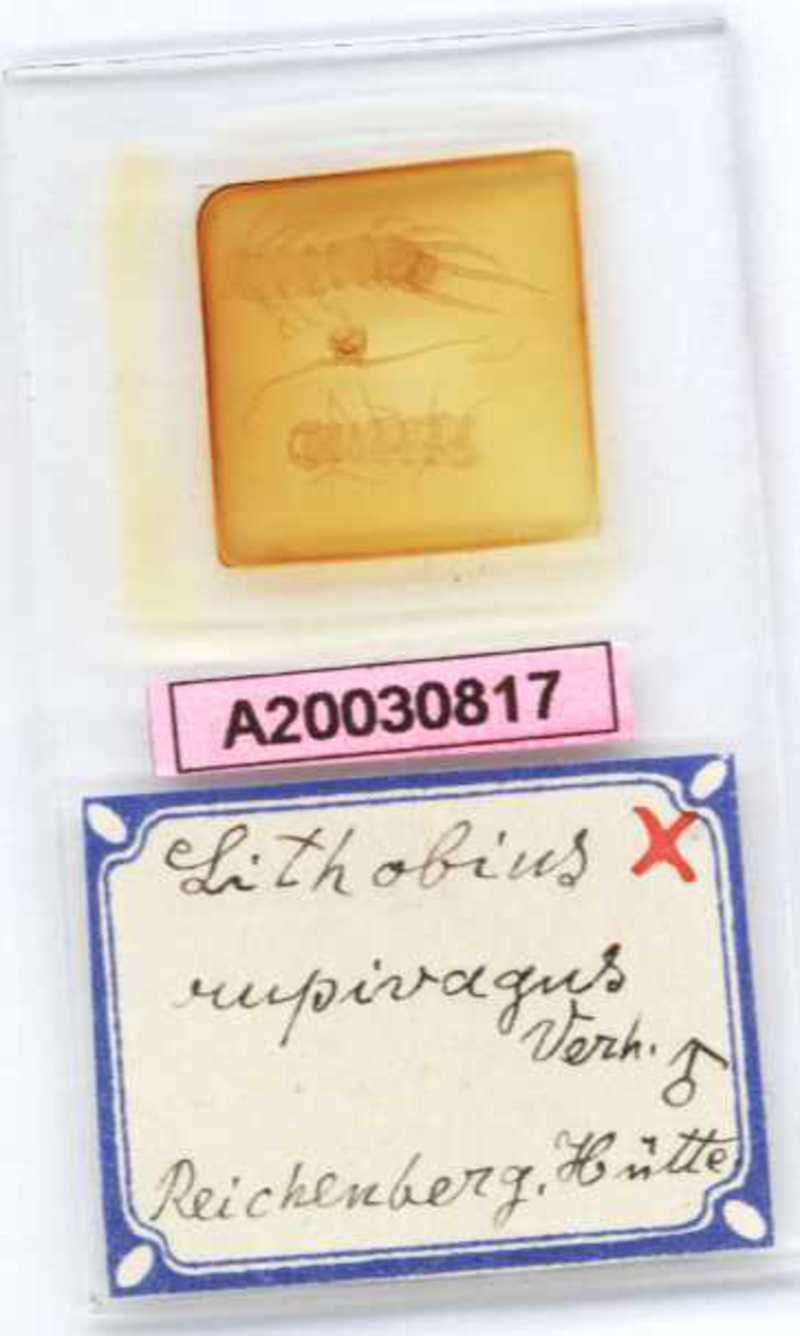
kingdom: Animalia
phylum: Arthropoda
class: Chilopoda
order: Lithobiomorpha
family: Lithobiidae
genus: Lithobius
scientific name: Lithobius lucifugus
